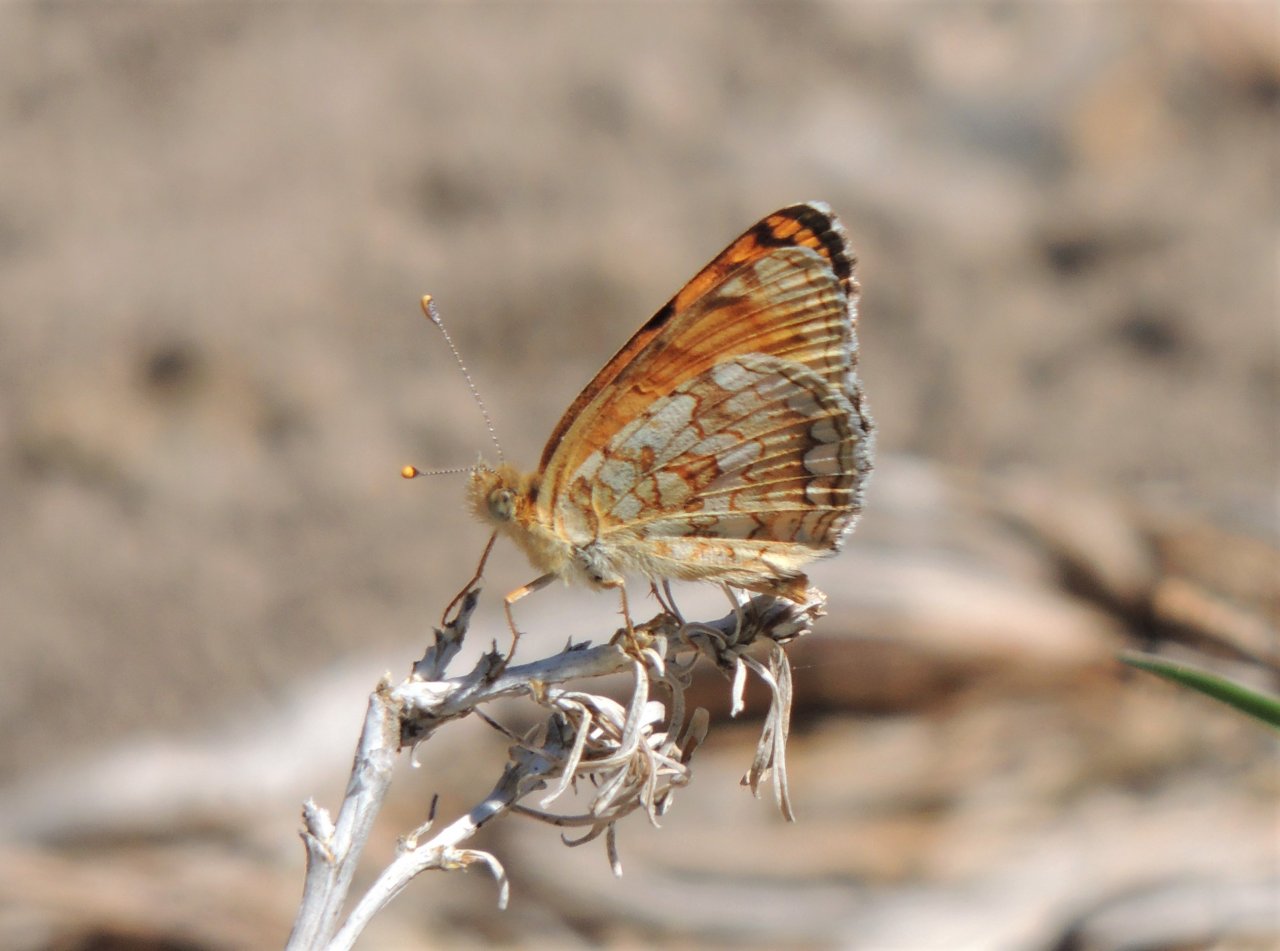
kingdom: Animalia
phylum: Arthropoda
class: Insecta
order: Lepidoptera
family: Nymphalidae
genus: Phyciodes
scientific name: Phyciodes pallida
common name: Pale Crescent
